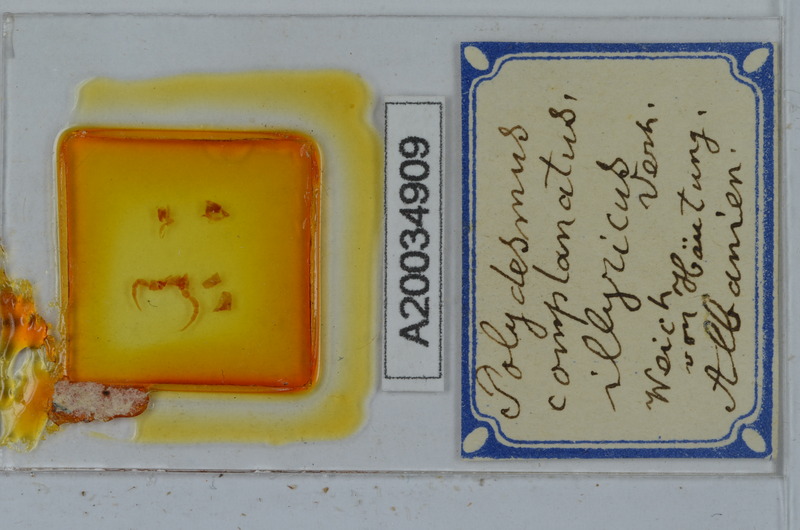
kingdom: Animalia
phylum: Arthropoda
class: Diplopoda
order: Polydesmida
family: Polydesmidae
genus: Polydesmus
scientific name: Polydesmus complanatus
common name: Flat-backed millipede
